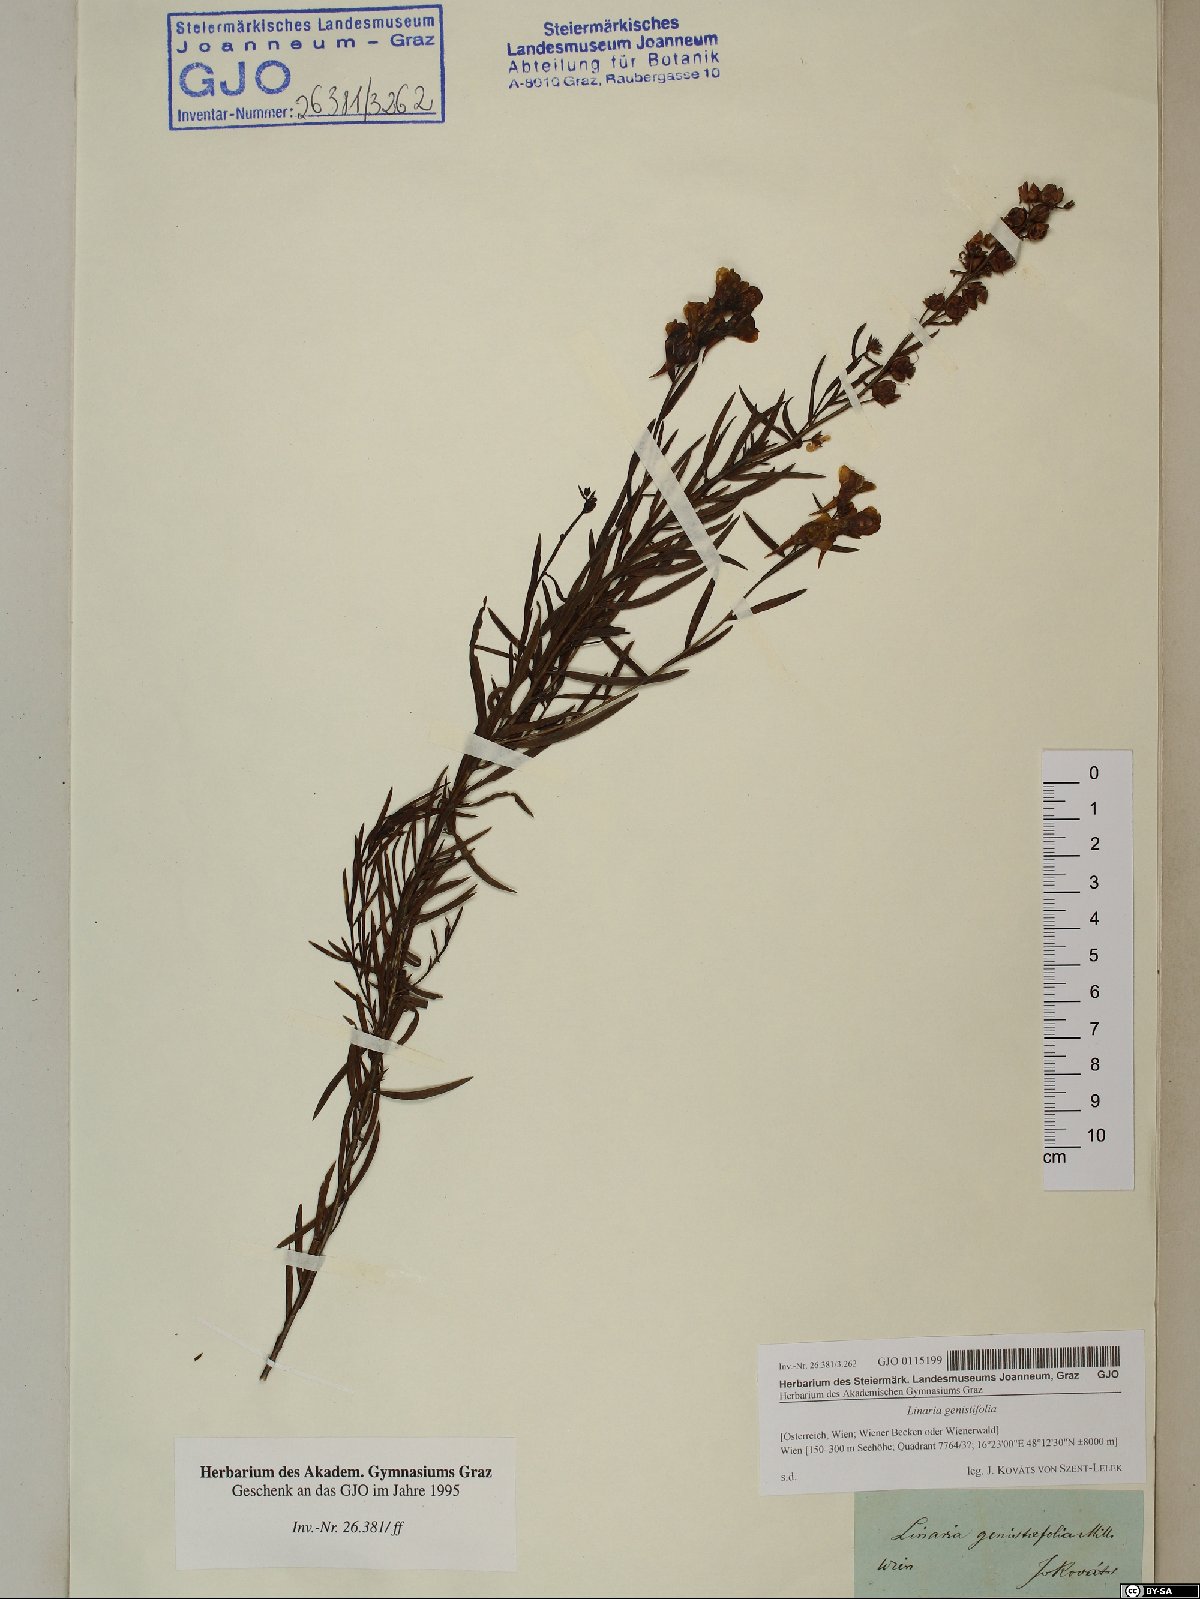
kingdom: Plantae
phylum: Tracheophyta
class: Magnoliopsida
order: Lamiales
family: Plantaginaceae
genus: Linaria
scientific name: Linaria genistifolia
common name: Broomleaf toadflax
